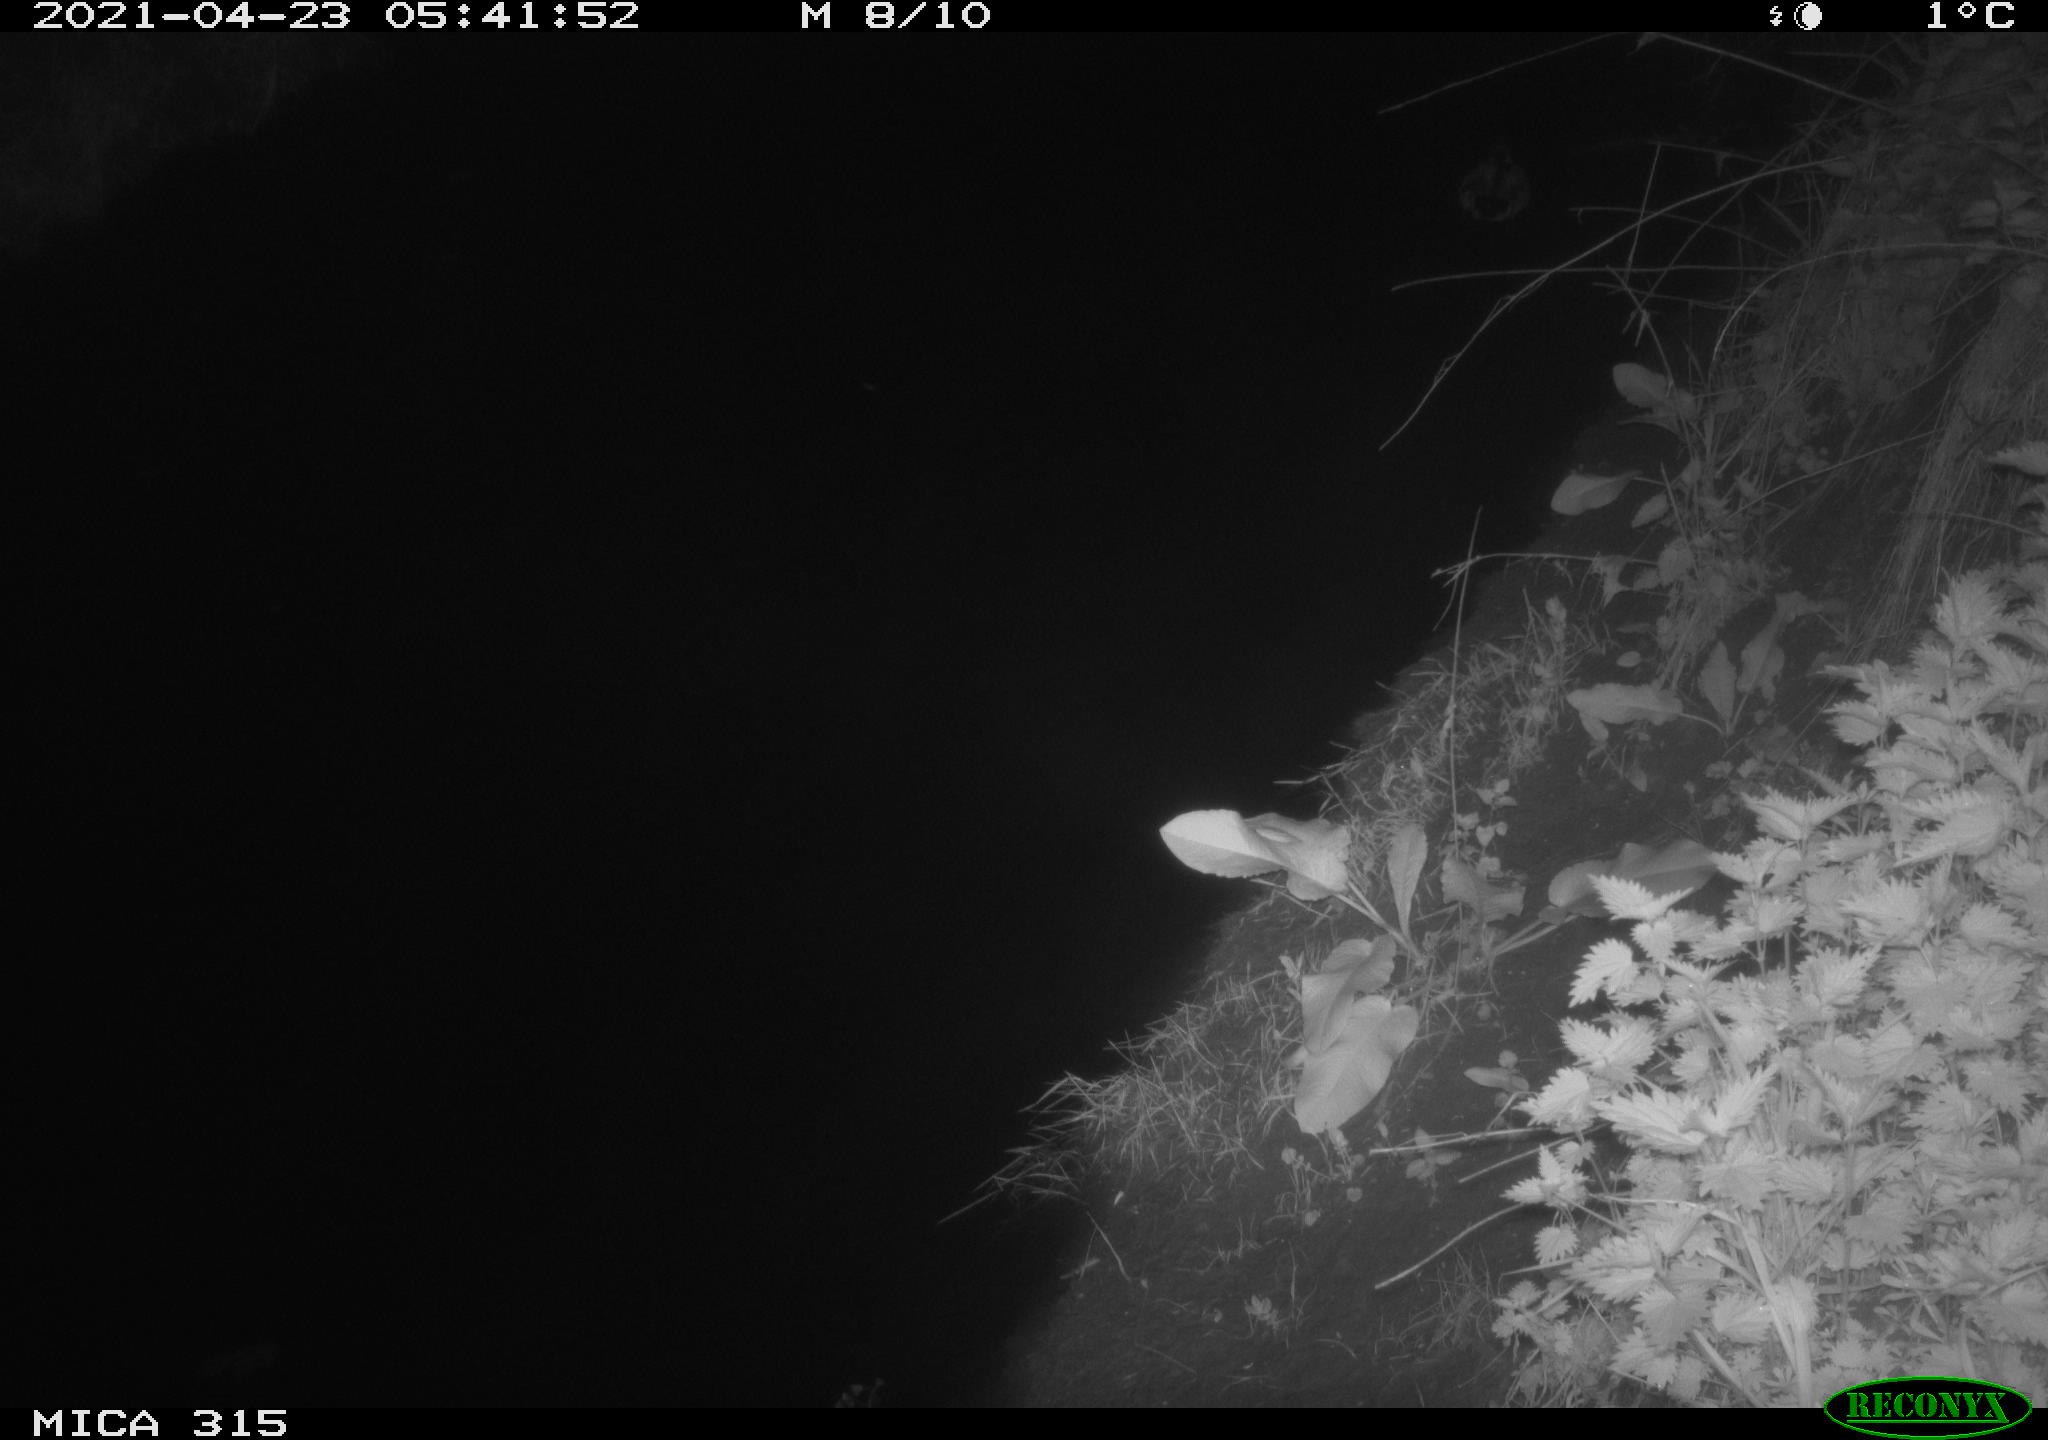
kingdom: Animalia
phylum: Chordata
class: Aves
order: Anseriformes
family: Anatidae
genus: Anas
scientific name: Anas
